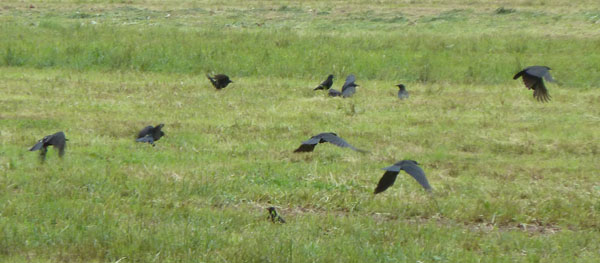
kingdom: Animalia
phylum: Chordata
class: Aves
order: Passeriformes
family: Corvidae
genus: Corvus
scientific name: Corvus corone
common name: Carrion crow
